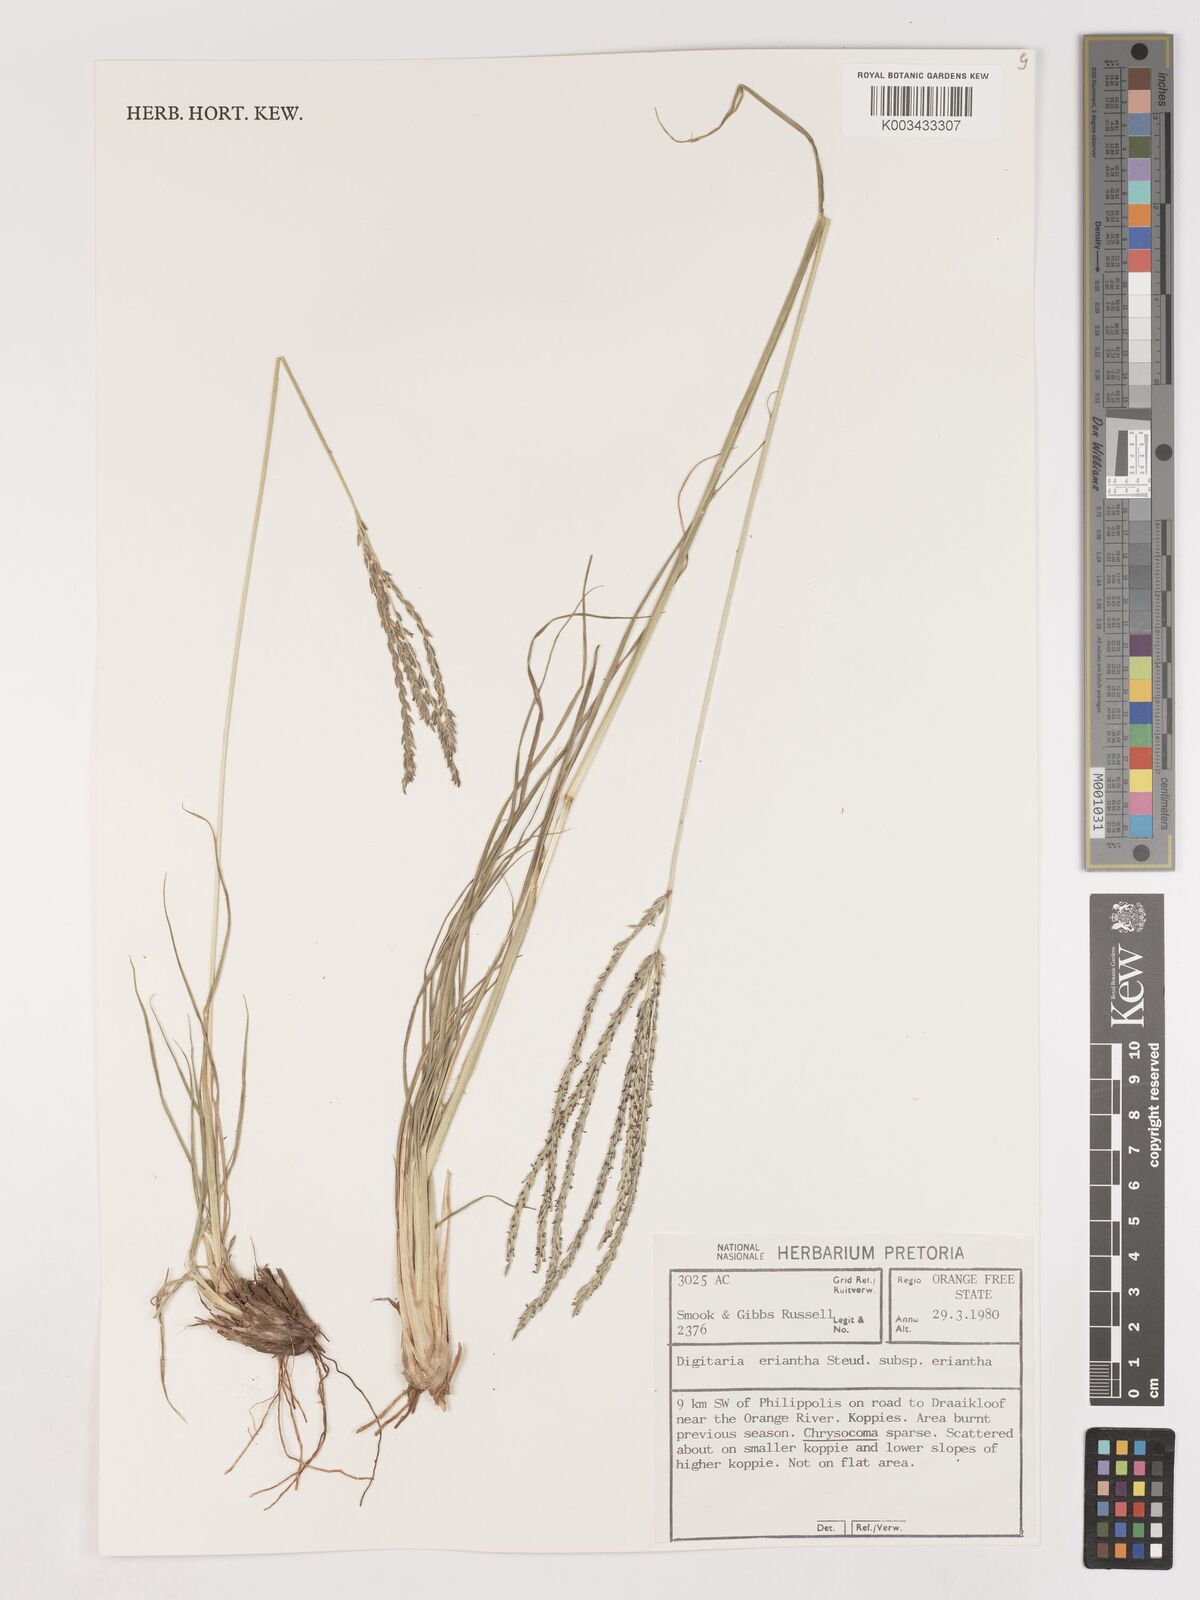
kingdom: Plantae
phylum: Tracheophyta
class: Liliopsida
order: Poales
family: Poaceae
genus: Digitaria
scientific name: Digitaria eriantha
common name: Digitgrass
